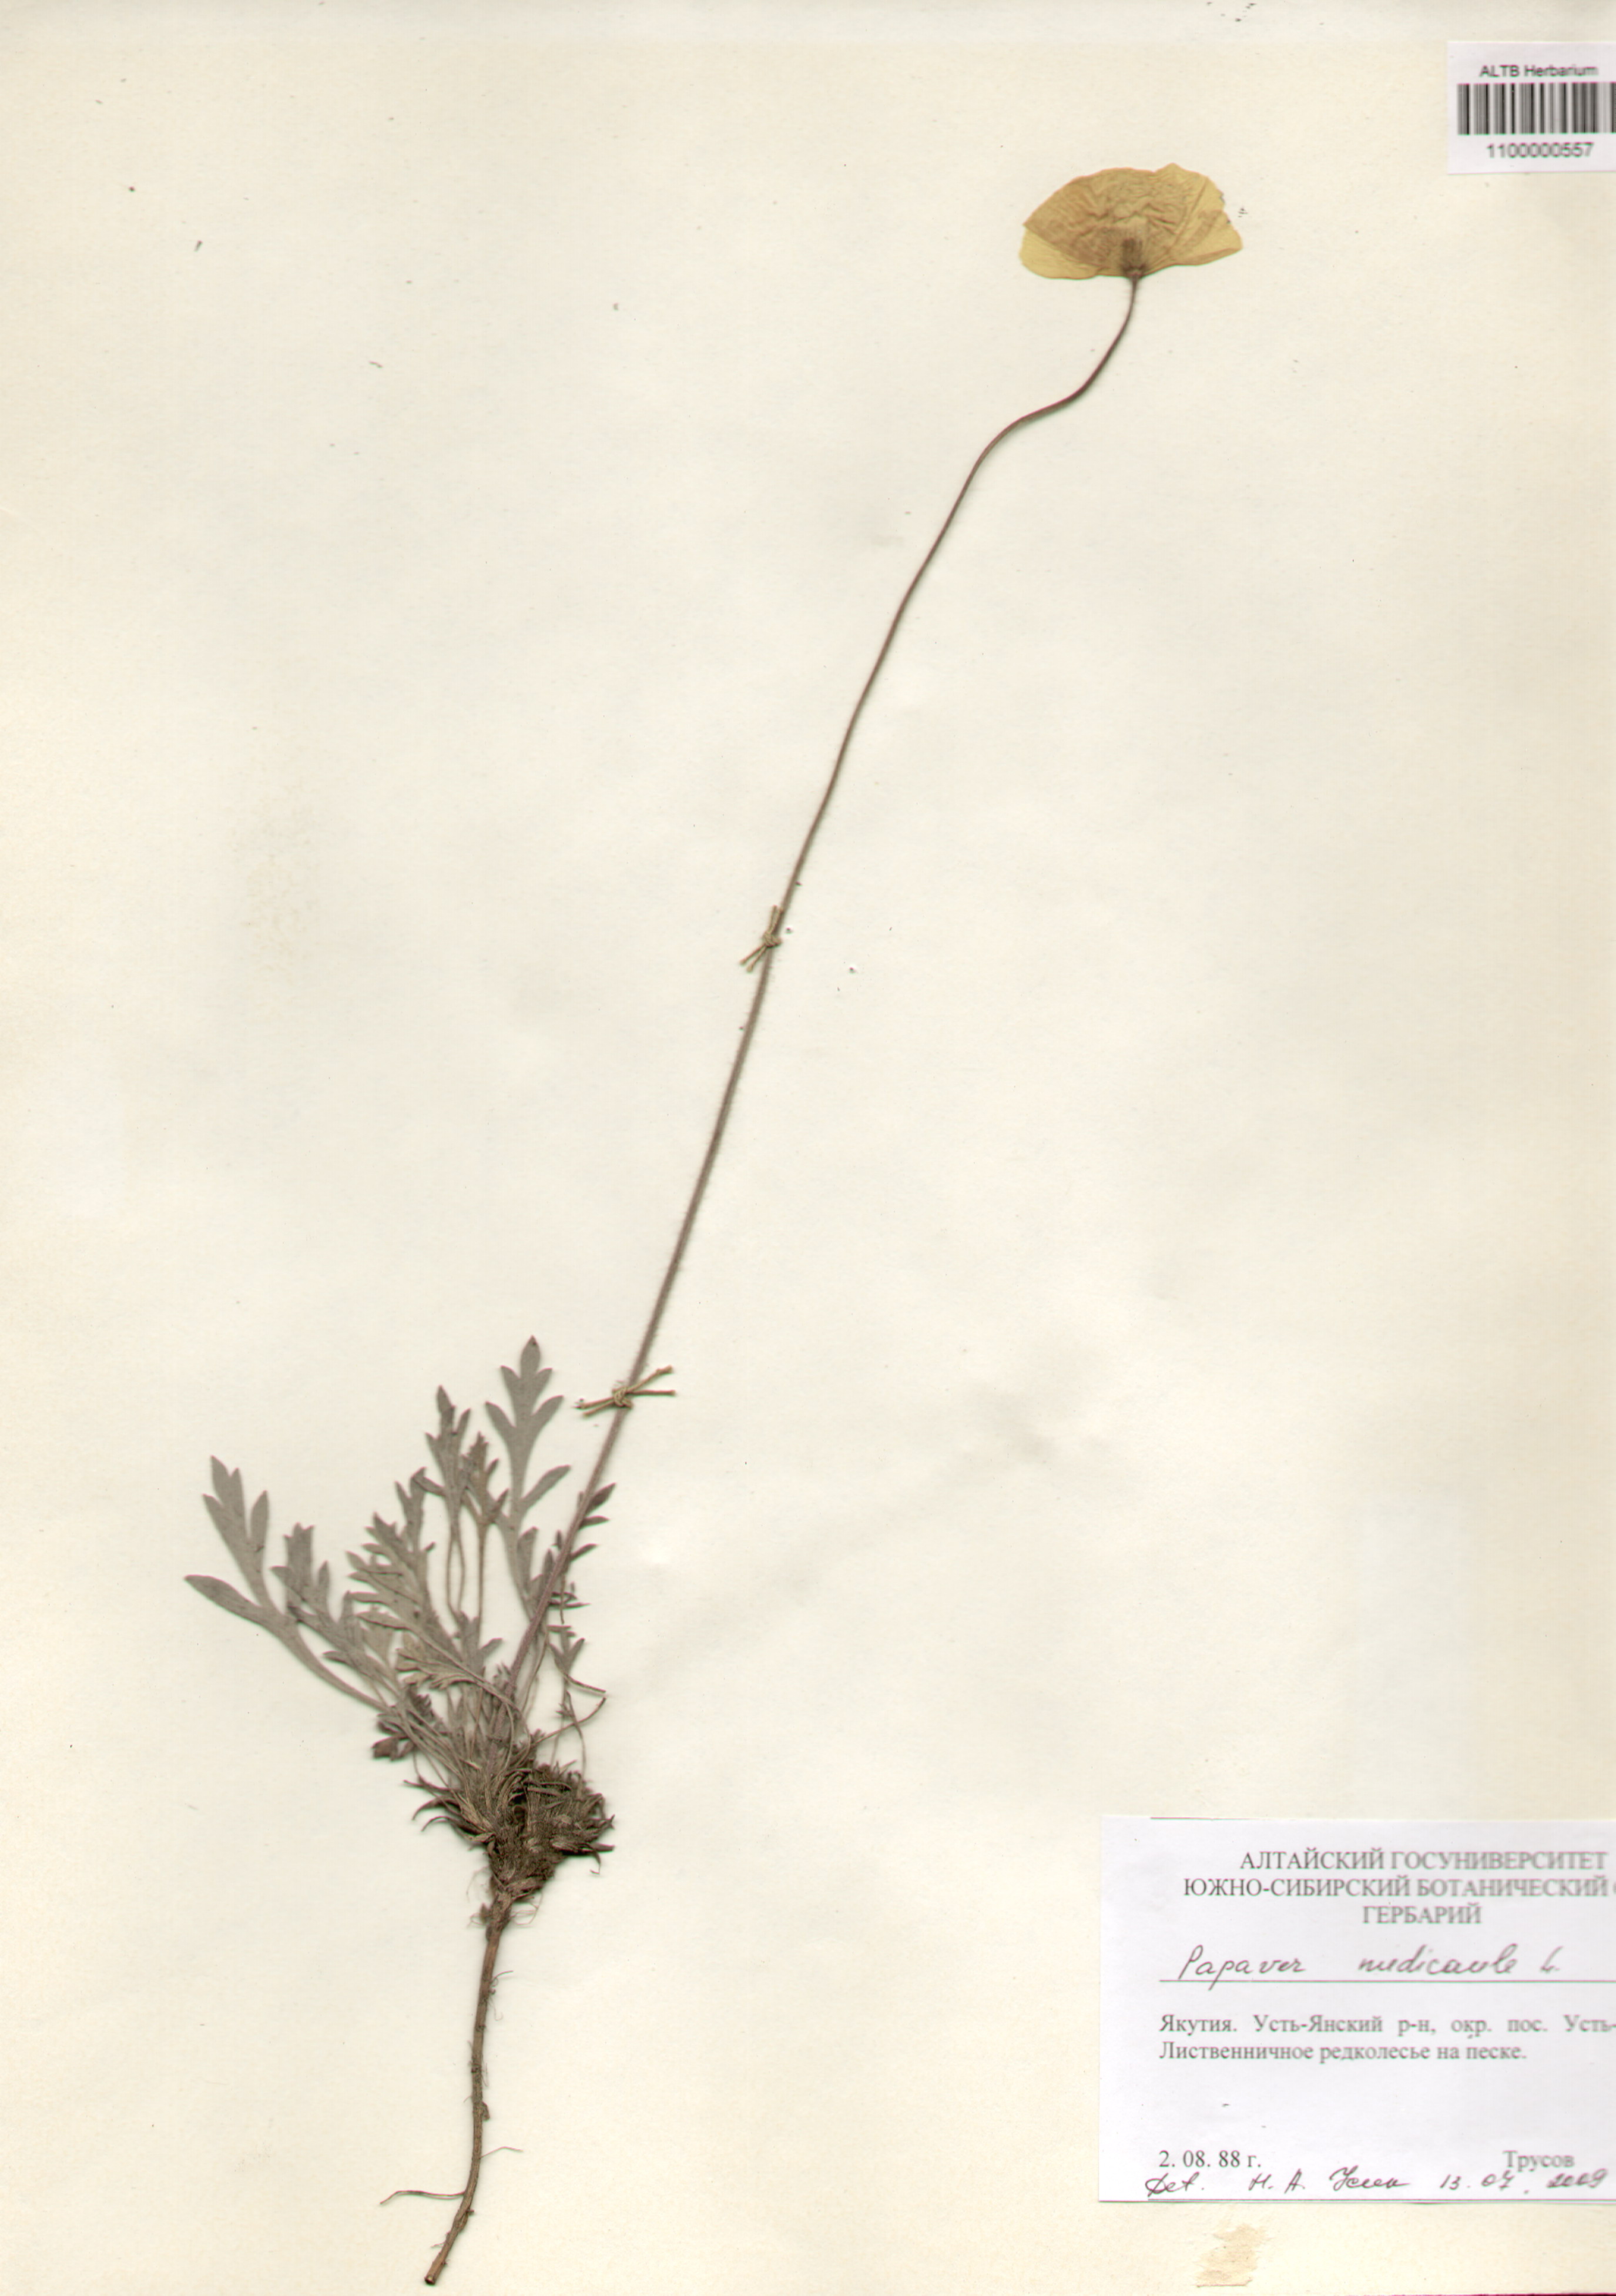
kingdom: Plantae
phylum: Tracheophyta
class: Magnoliopsida
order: Ranunculales
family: Papaveraceae
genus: Papaver
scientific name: Papaver nudicaule
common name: Arctic poppy
